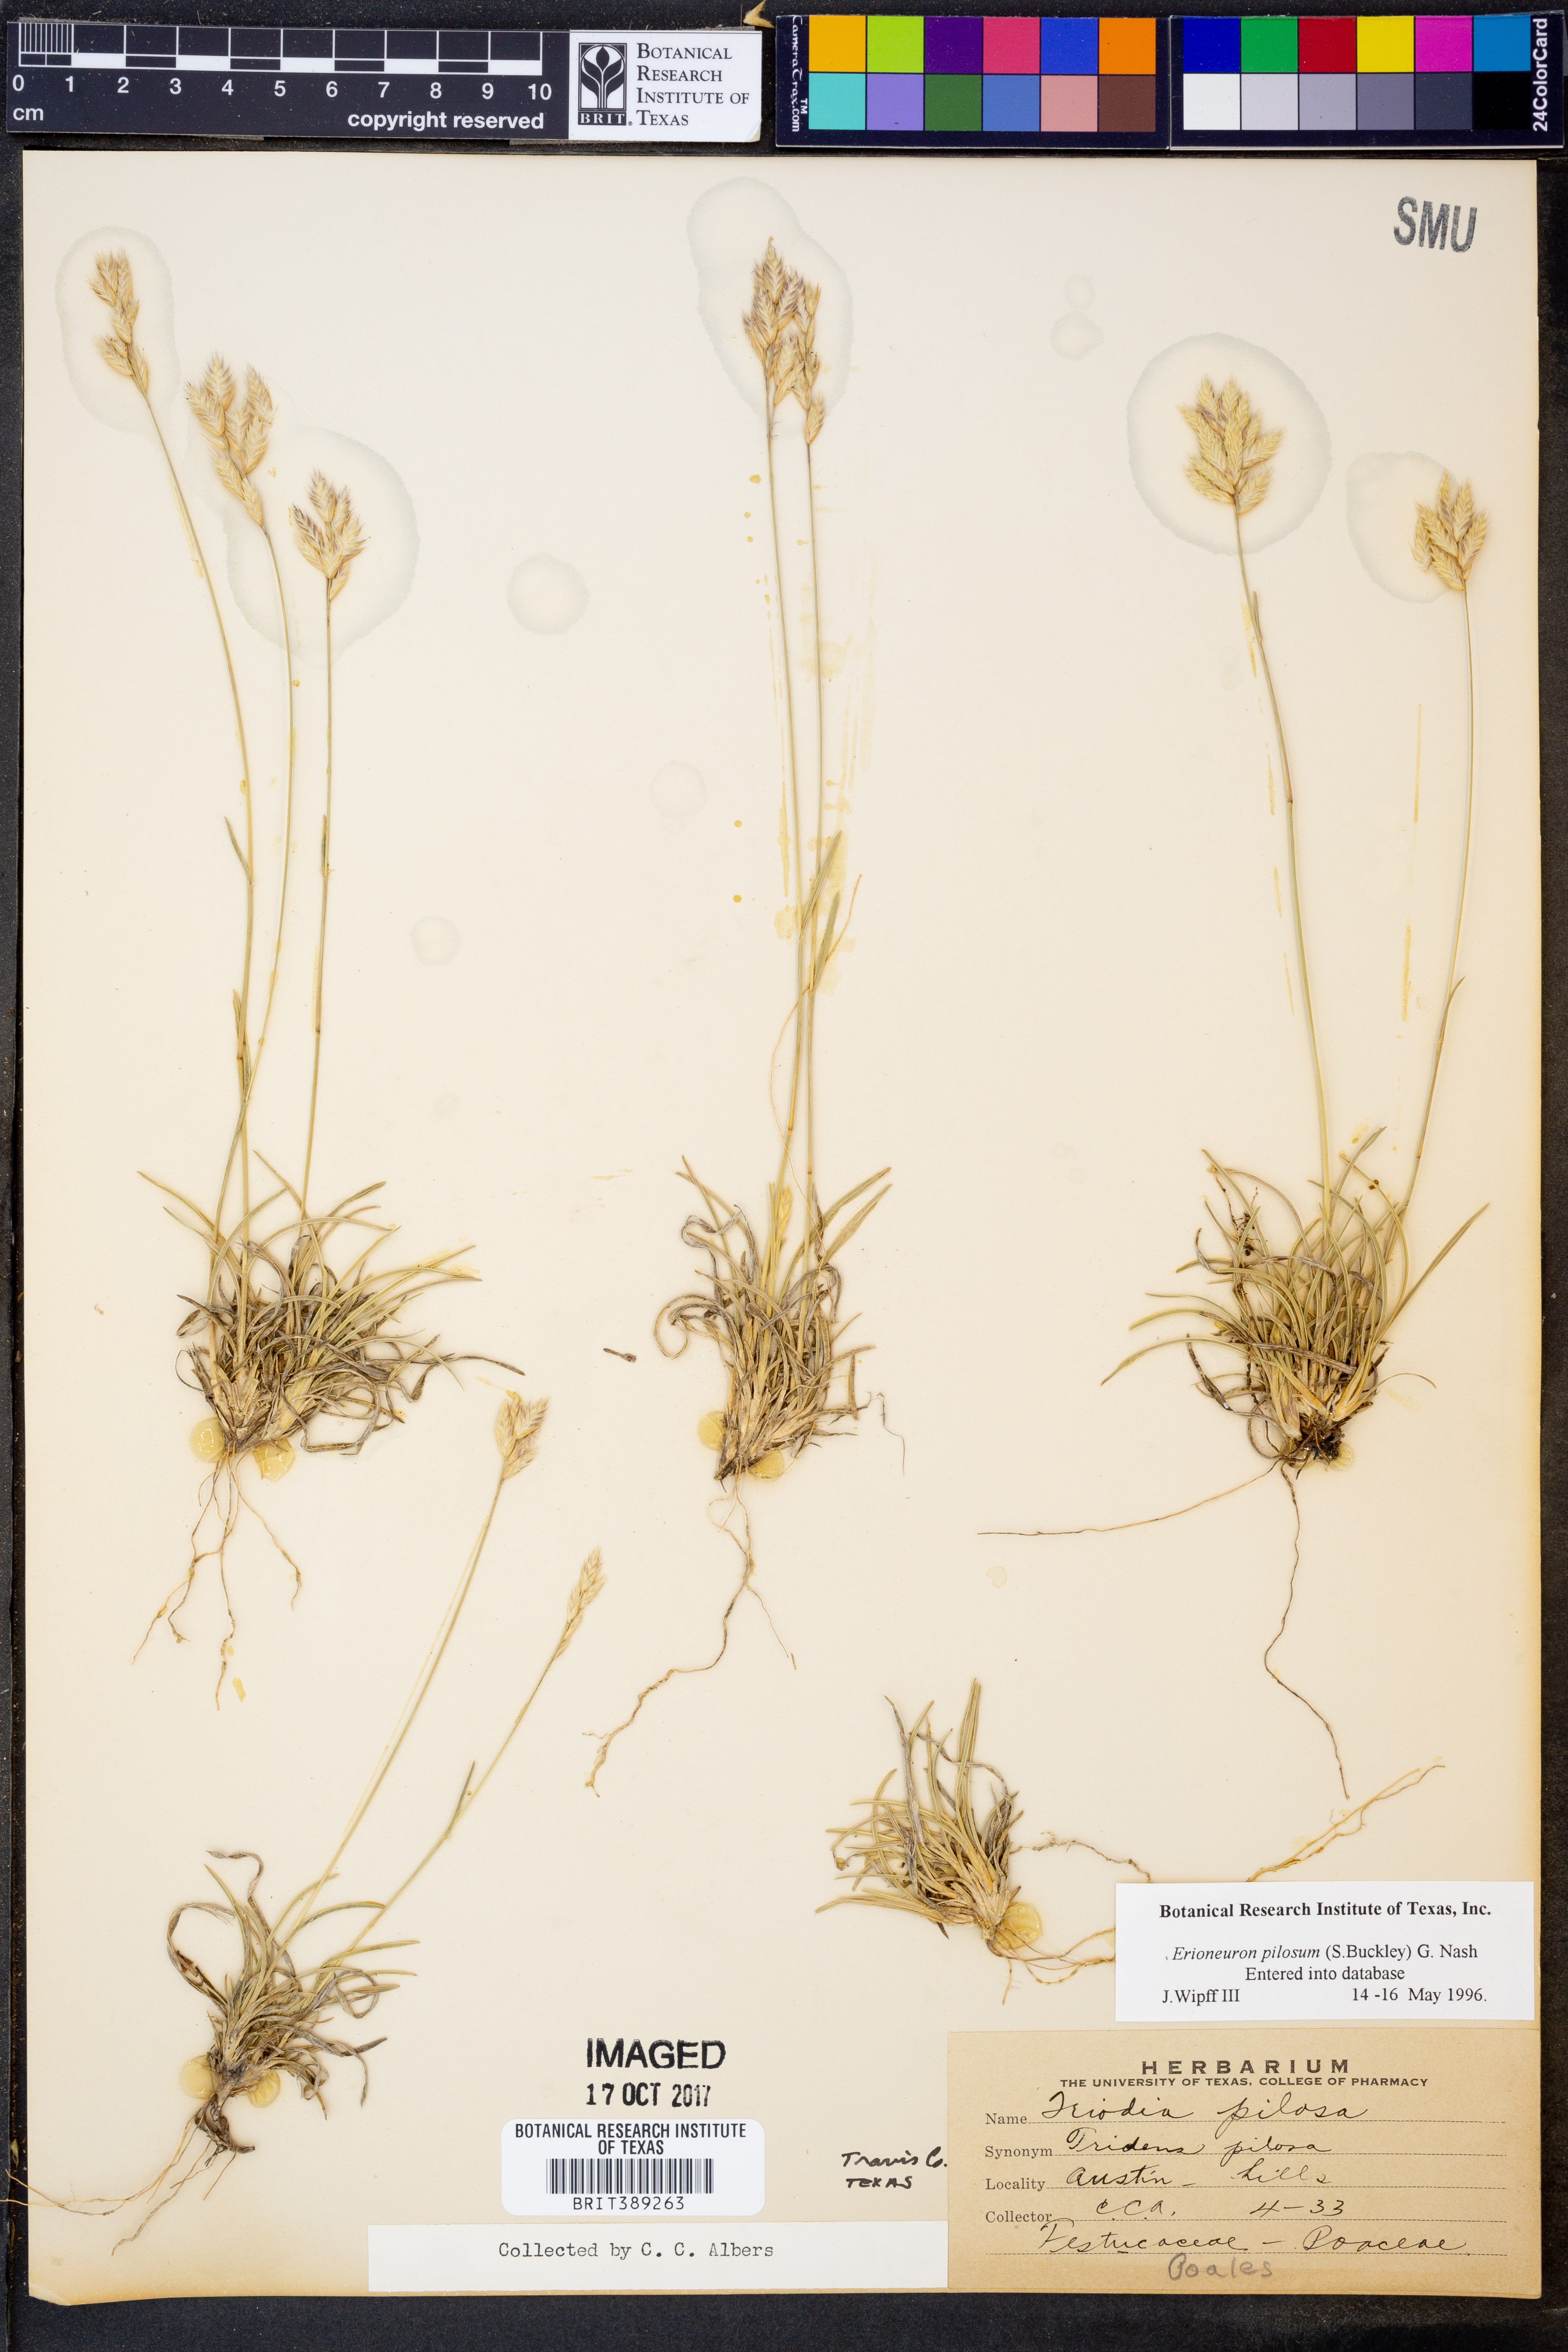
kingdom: Plantae
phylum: Tracheophyta
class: Liliopsida
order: Poales
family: Poaceae
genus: Erioneuron
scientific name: Erioneuron pilosum
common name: Hairy woolly grass
